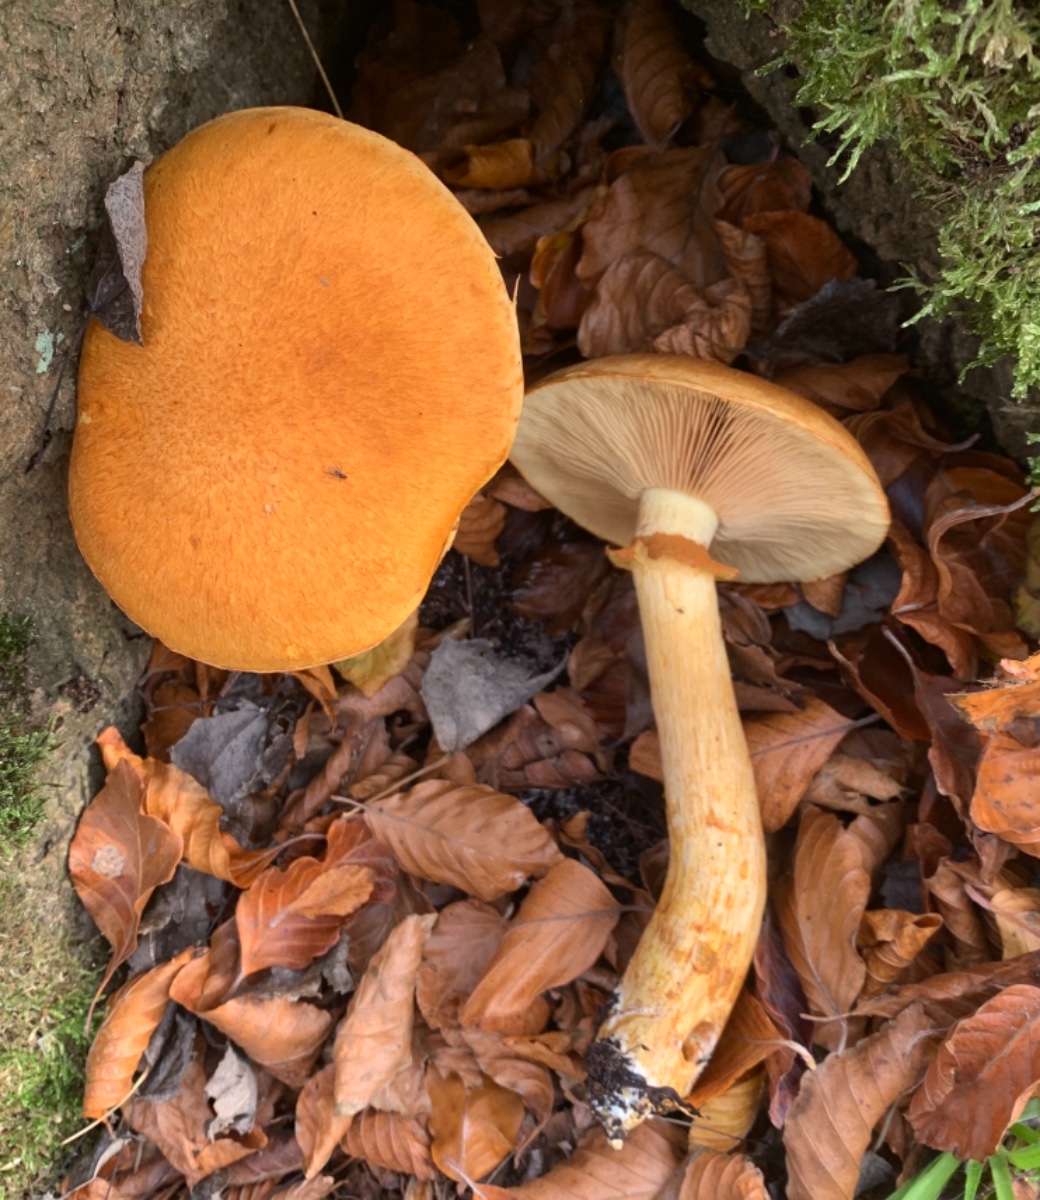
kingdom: Fungi
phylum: Basidiomycota
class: Agaricomycetes
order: Agaricales
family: Hymenogastraceae
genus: Gymnopilus
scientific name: Gymnopilus spectabilis
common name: fibret flammehat
